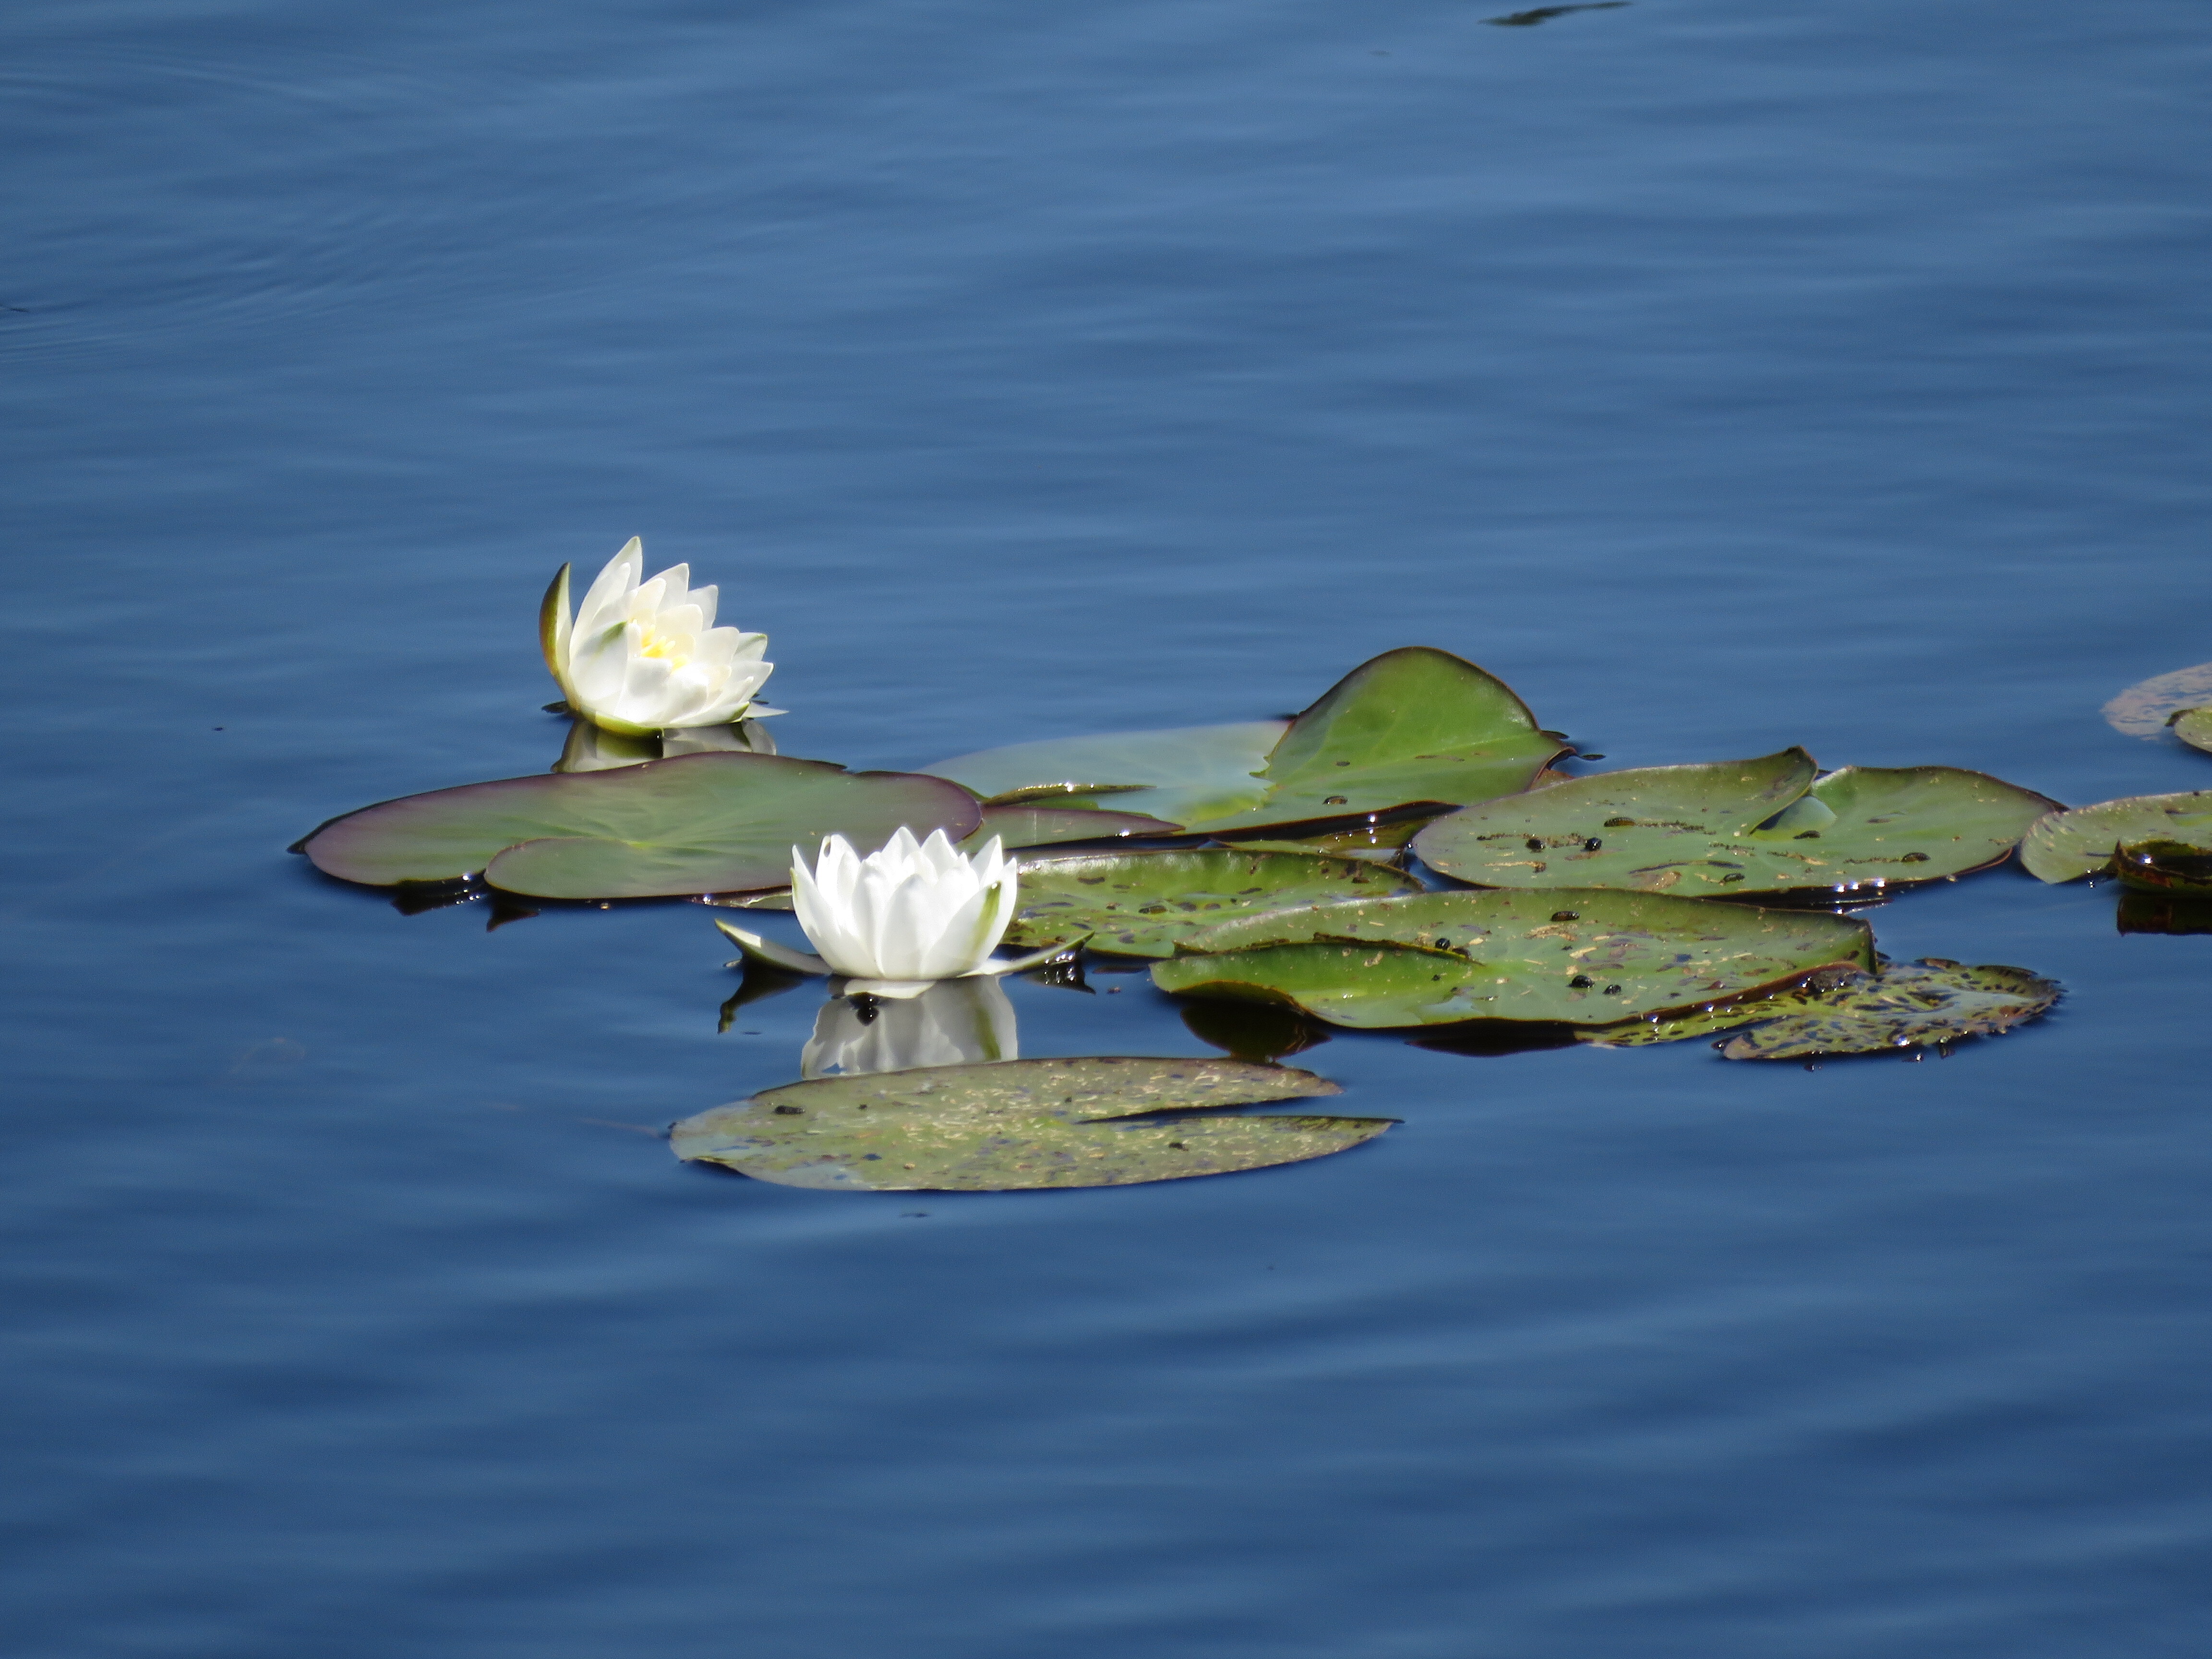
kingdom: Plantae
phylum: Tracheophyta
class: Magnoliopsida
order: Nymphaeales
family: Nymphaeaceae
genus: Nymphaea
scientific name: Nymphaea
